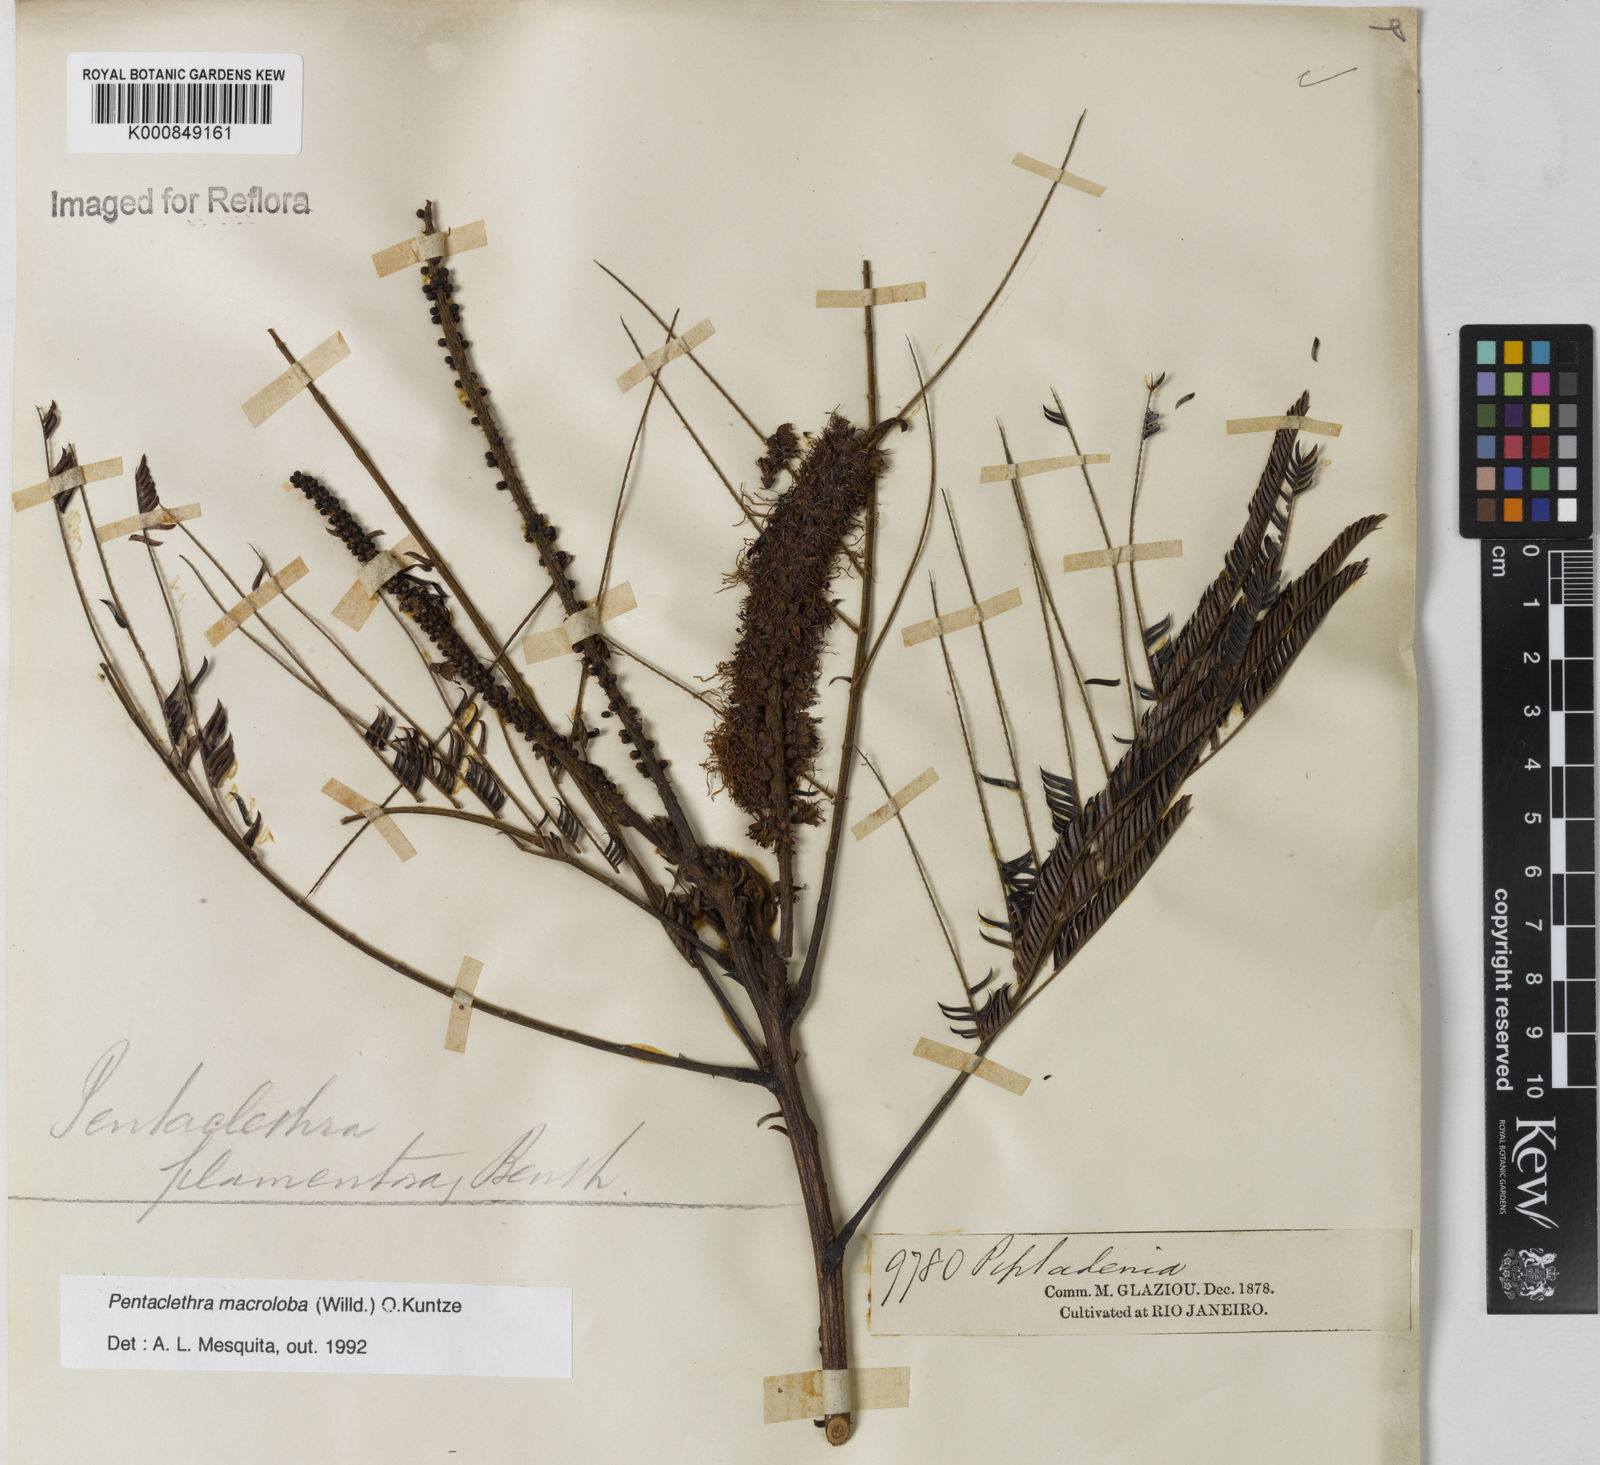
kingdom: Plantae
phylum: Tracheophyta
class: Magnoliopsida
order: Fabales
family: Fabaceae
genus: Pentaclethra
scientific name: Pentaclethra macroloba
